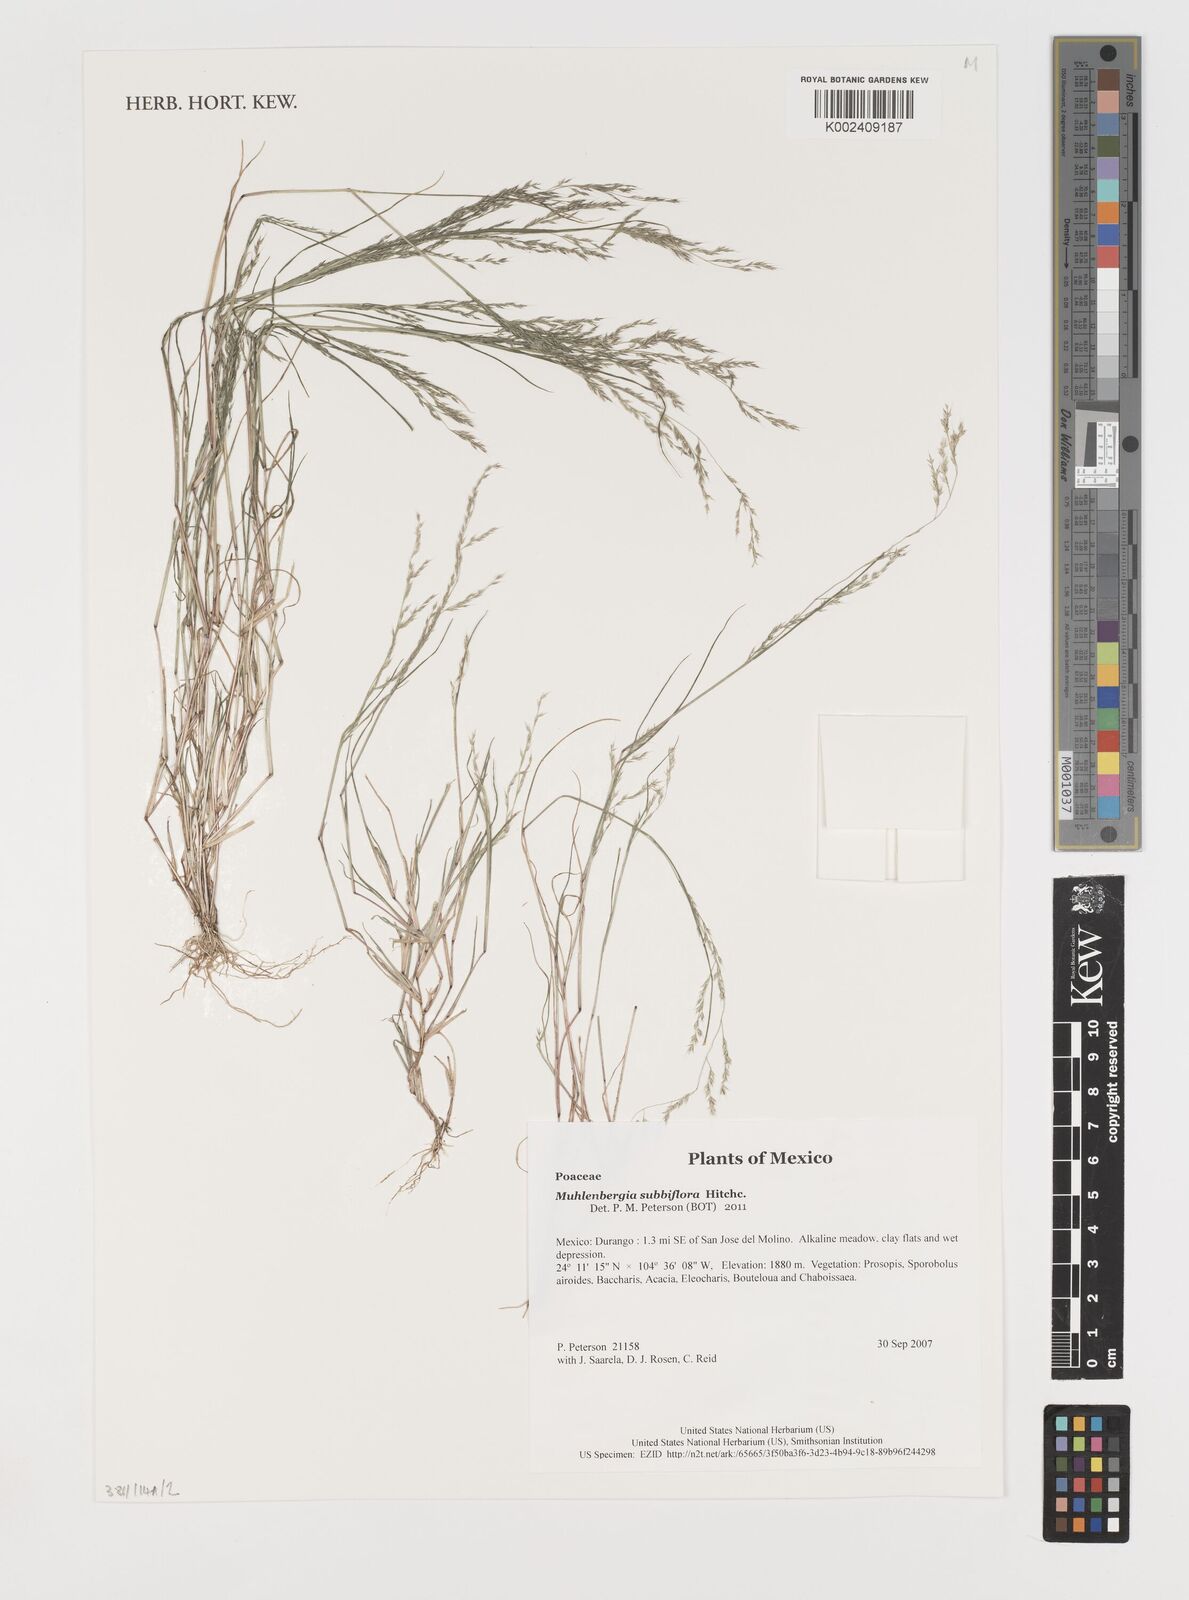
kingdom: Plantae
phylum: Tracheophyta
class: Liliopsida
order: Poales
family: Poaceae
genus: Muhlenbergia
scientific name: Muhlenbergia subbiflora
